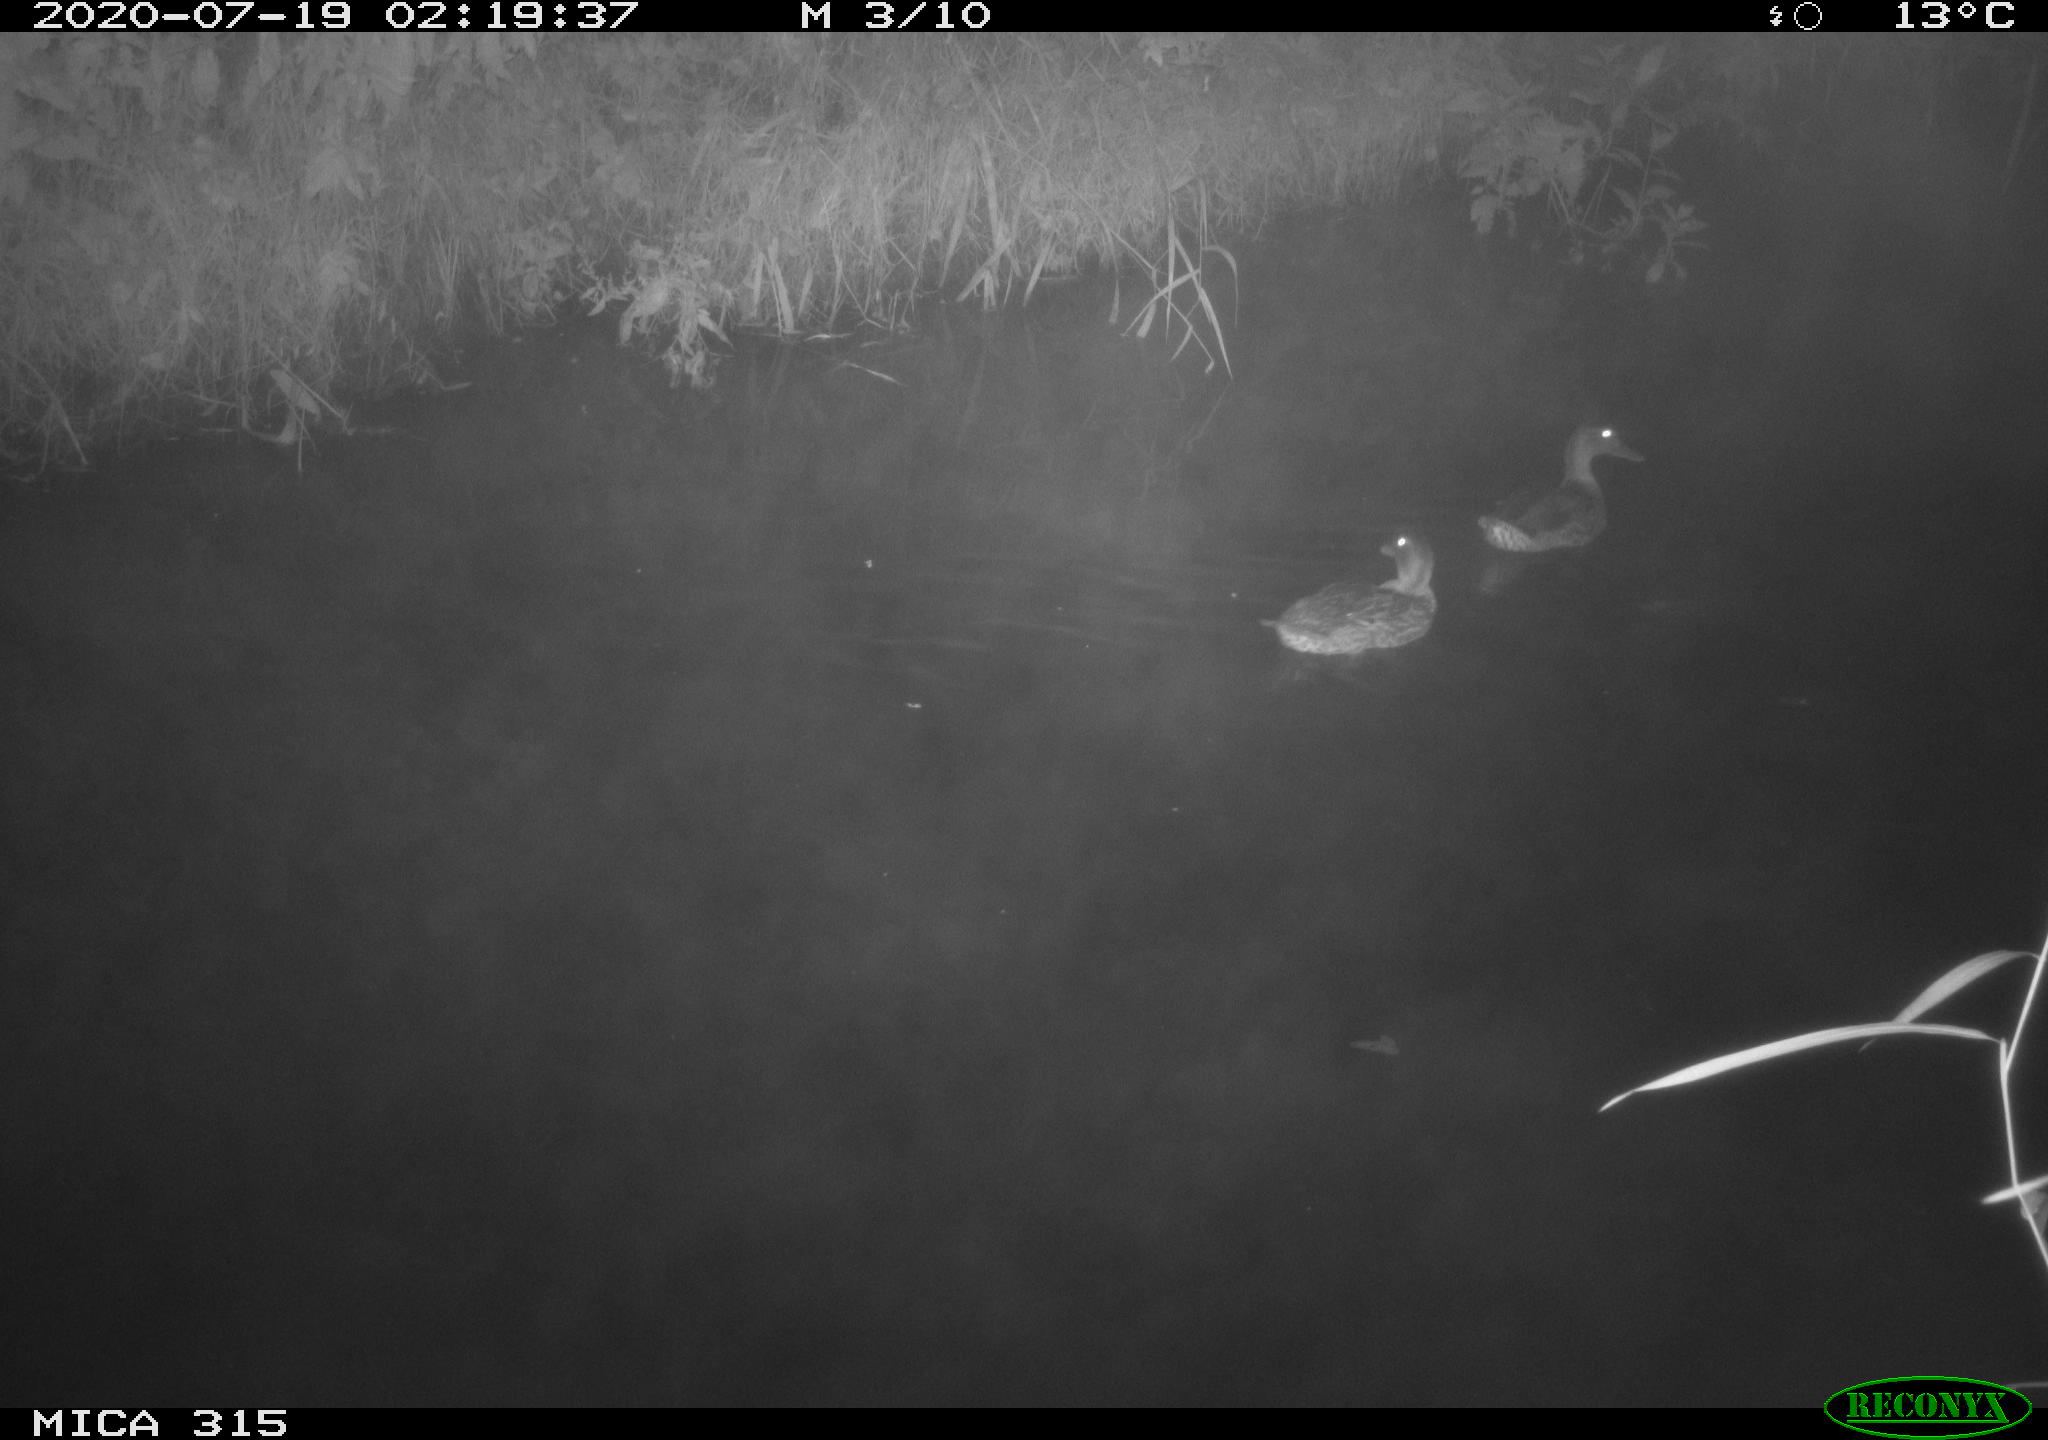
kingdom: Animalia
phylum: Chordata
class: Aves
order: Anseriformes
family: Anatidae
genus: Anas
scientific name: Anas platyrhynchos
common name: Mallard
